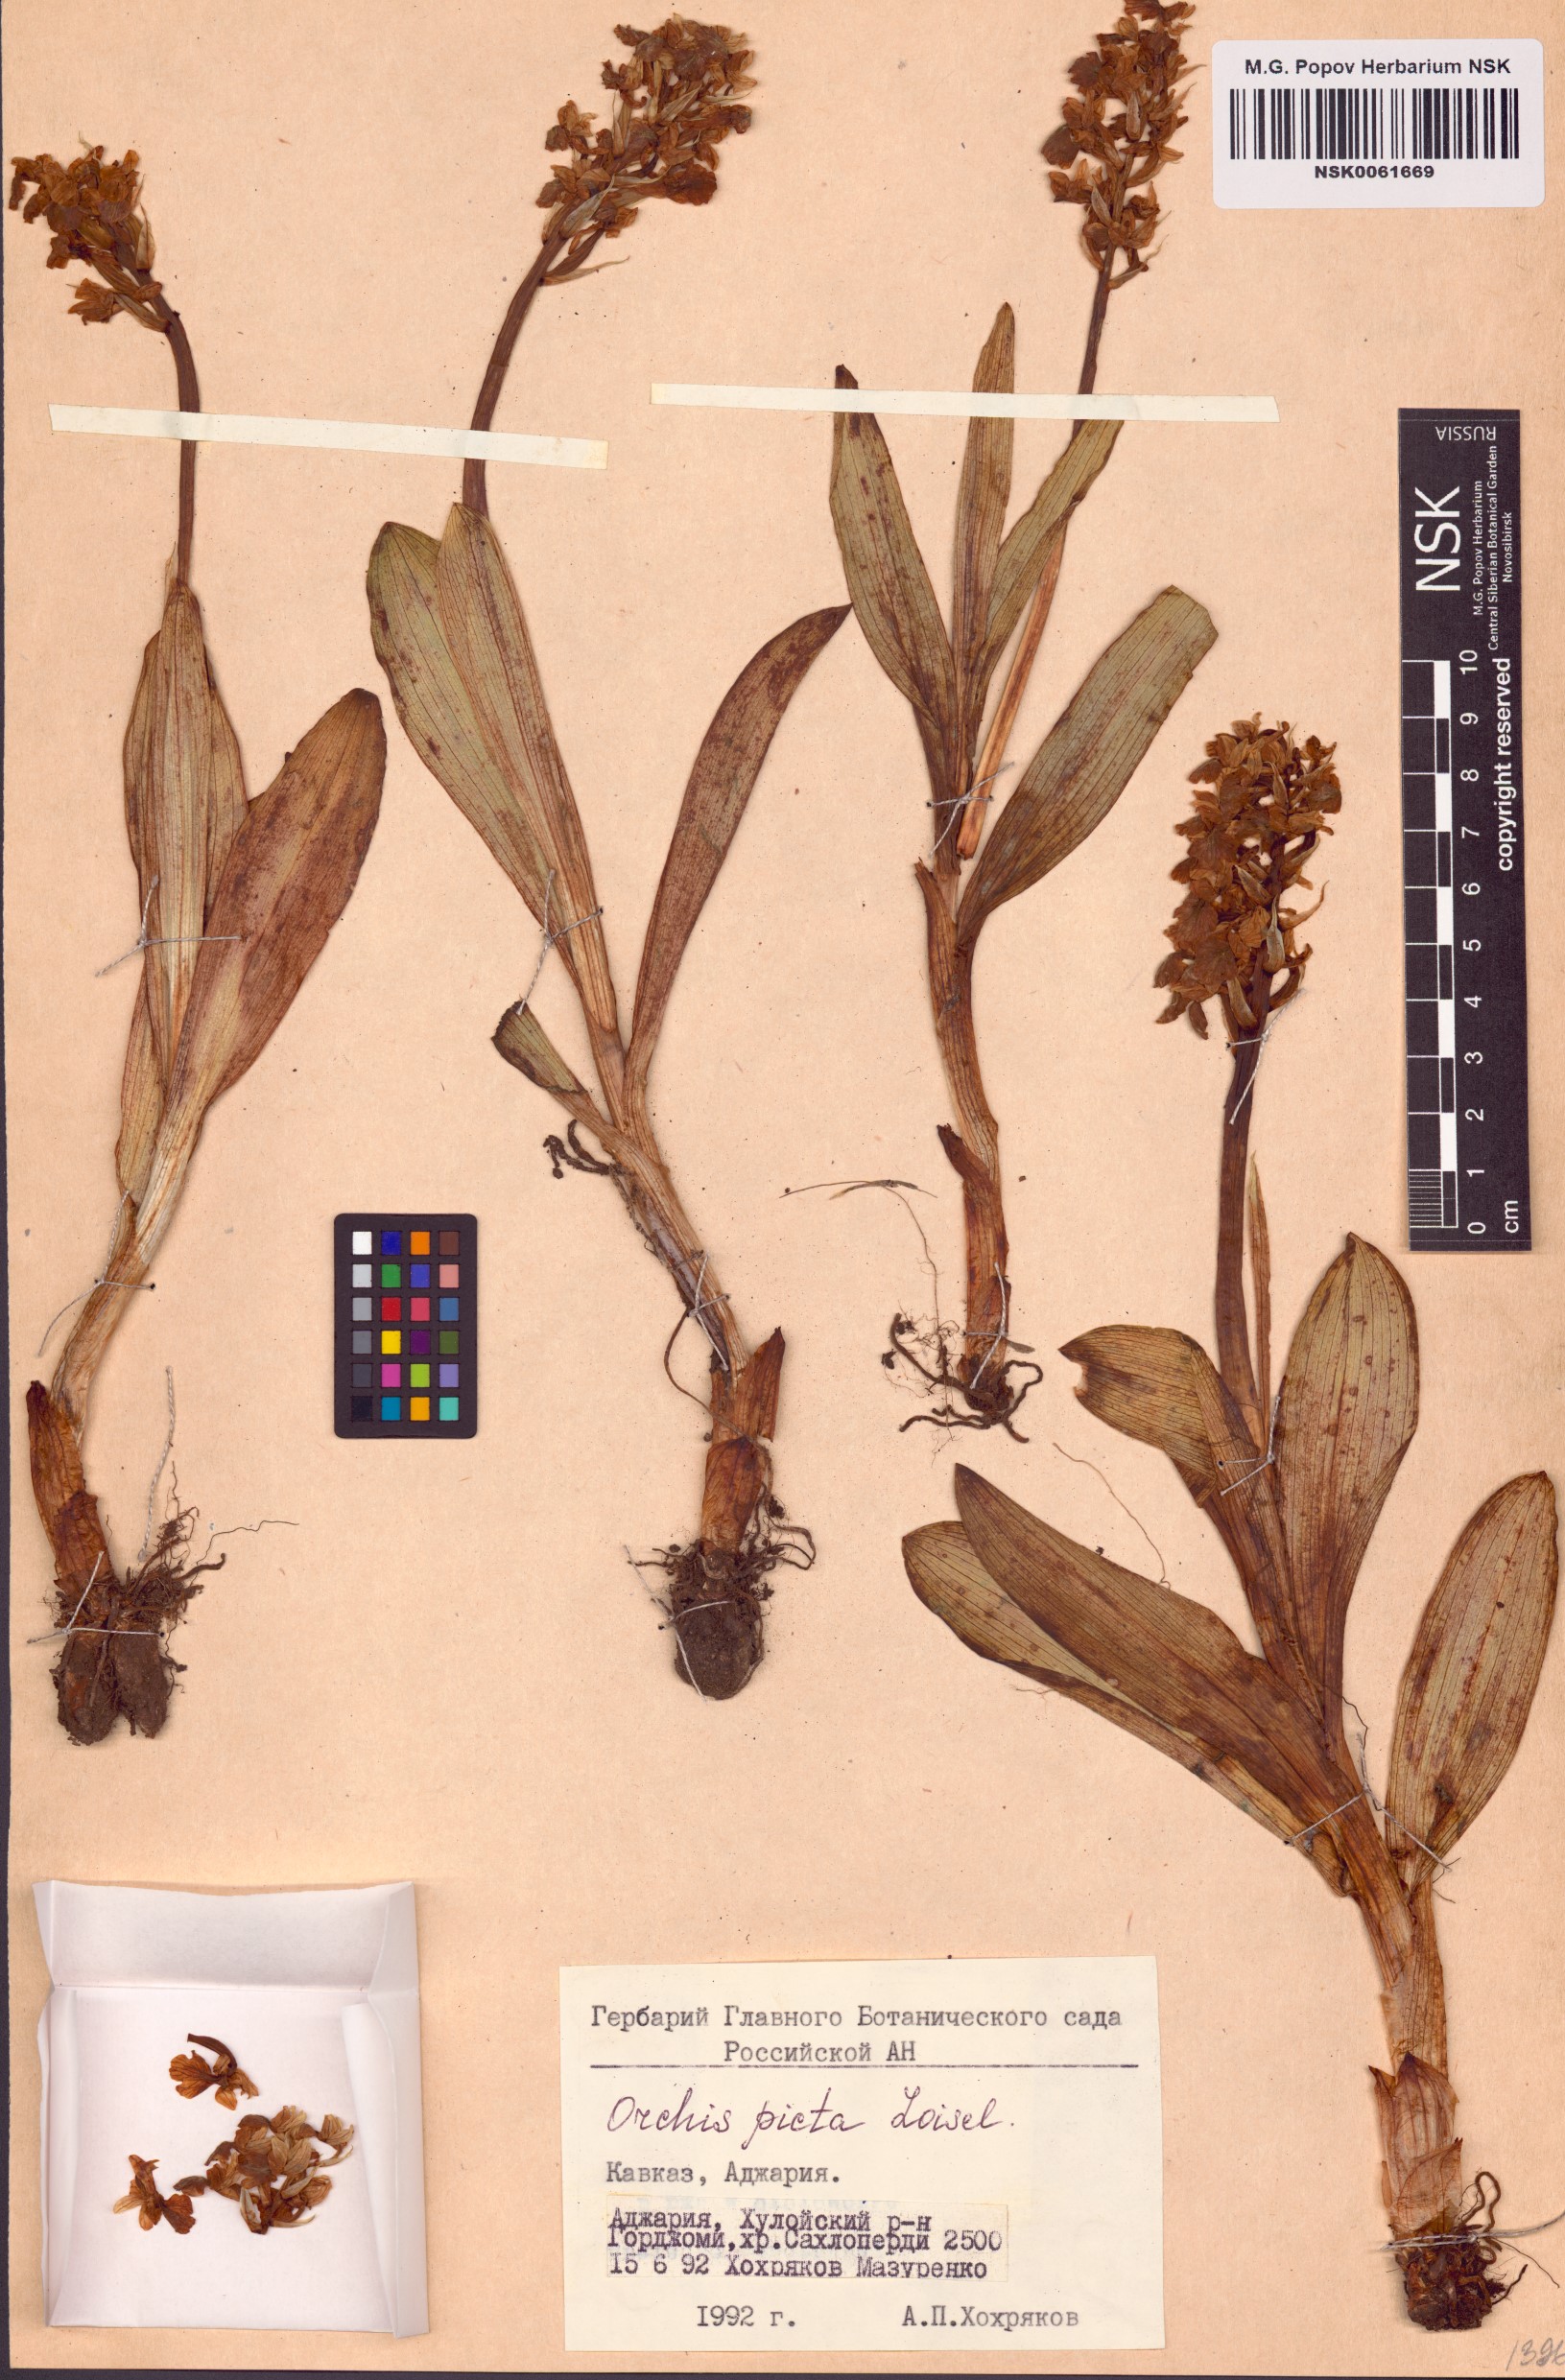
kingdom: Plantae
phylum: Tracheophyta
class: Liliopsida
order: Asparagales
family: Orchidaceae
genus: Anacamptis
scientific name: Anacamptis morio
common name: Green-winged orchid
